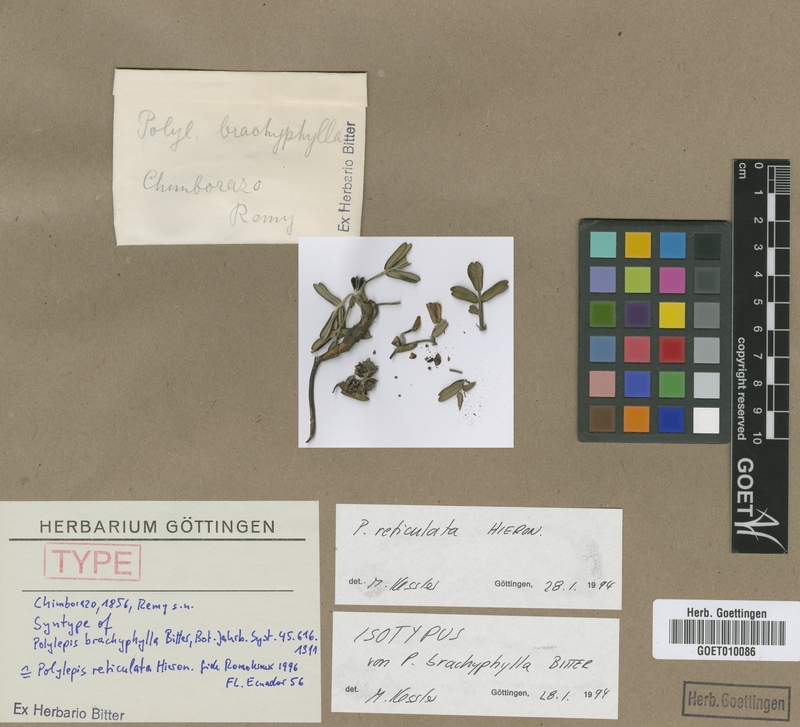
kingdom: Plantae
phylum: Tracheophyta
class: Magnoliopsida
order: Rosales
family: Rosaceae
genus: Polylepis
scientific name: Polylepis reticulata
